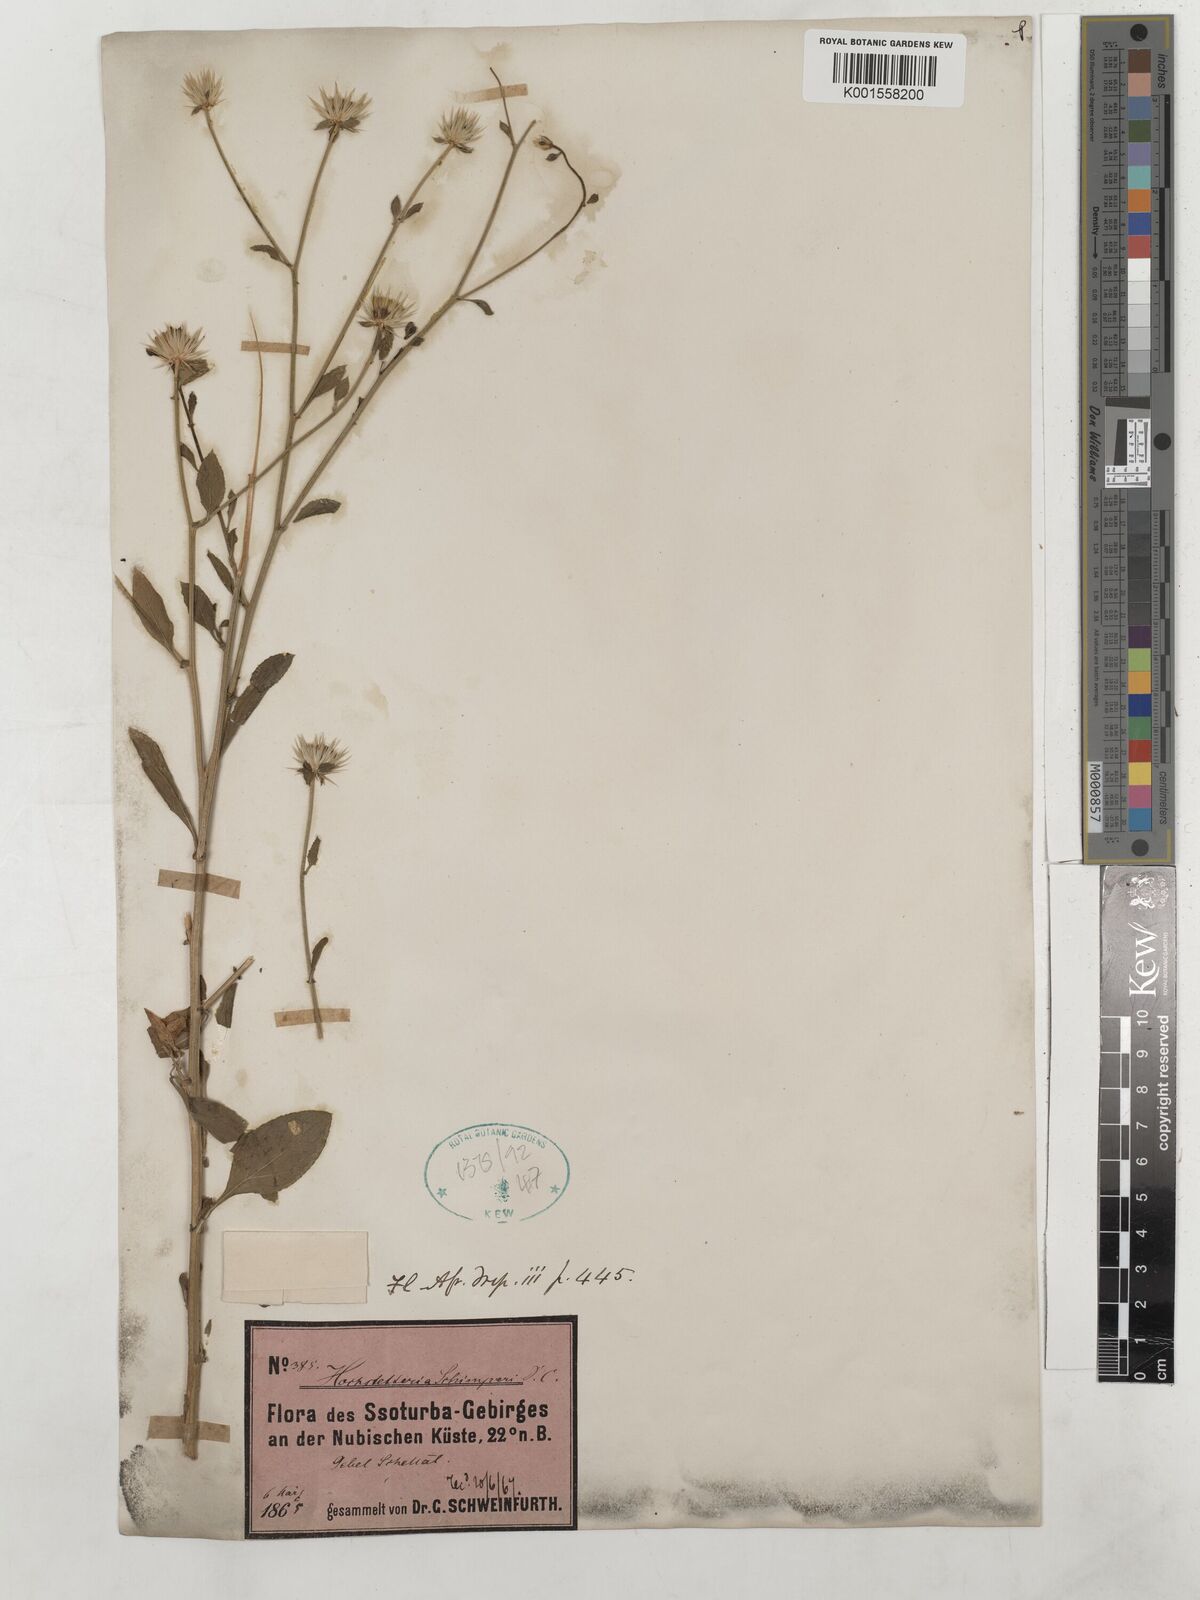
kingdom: Plantae
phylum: Tracheophyta
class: Magnoliopsida
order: Asterales
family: Asteraceae
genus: Dicoma
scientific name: Dicoma schimperi
